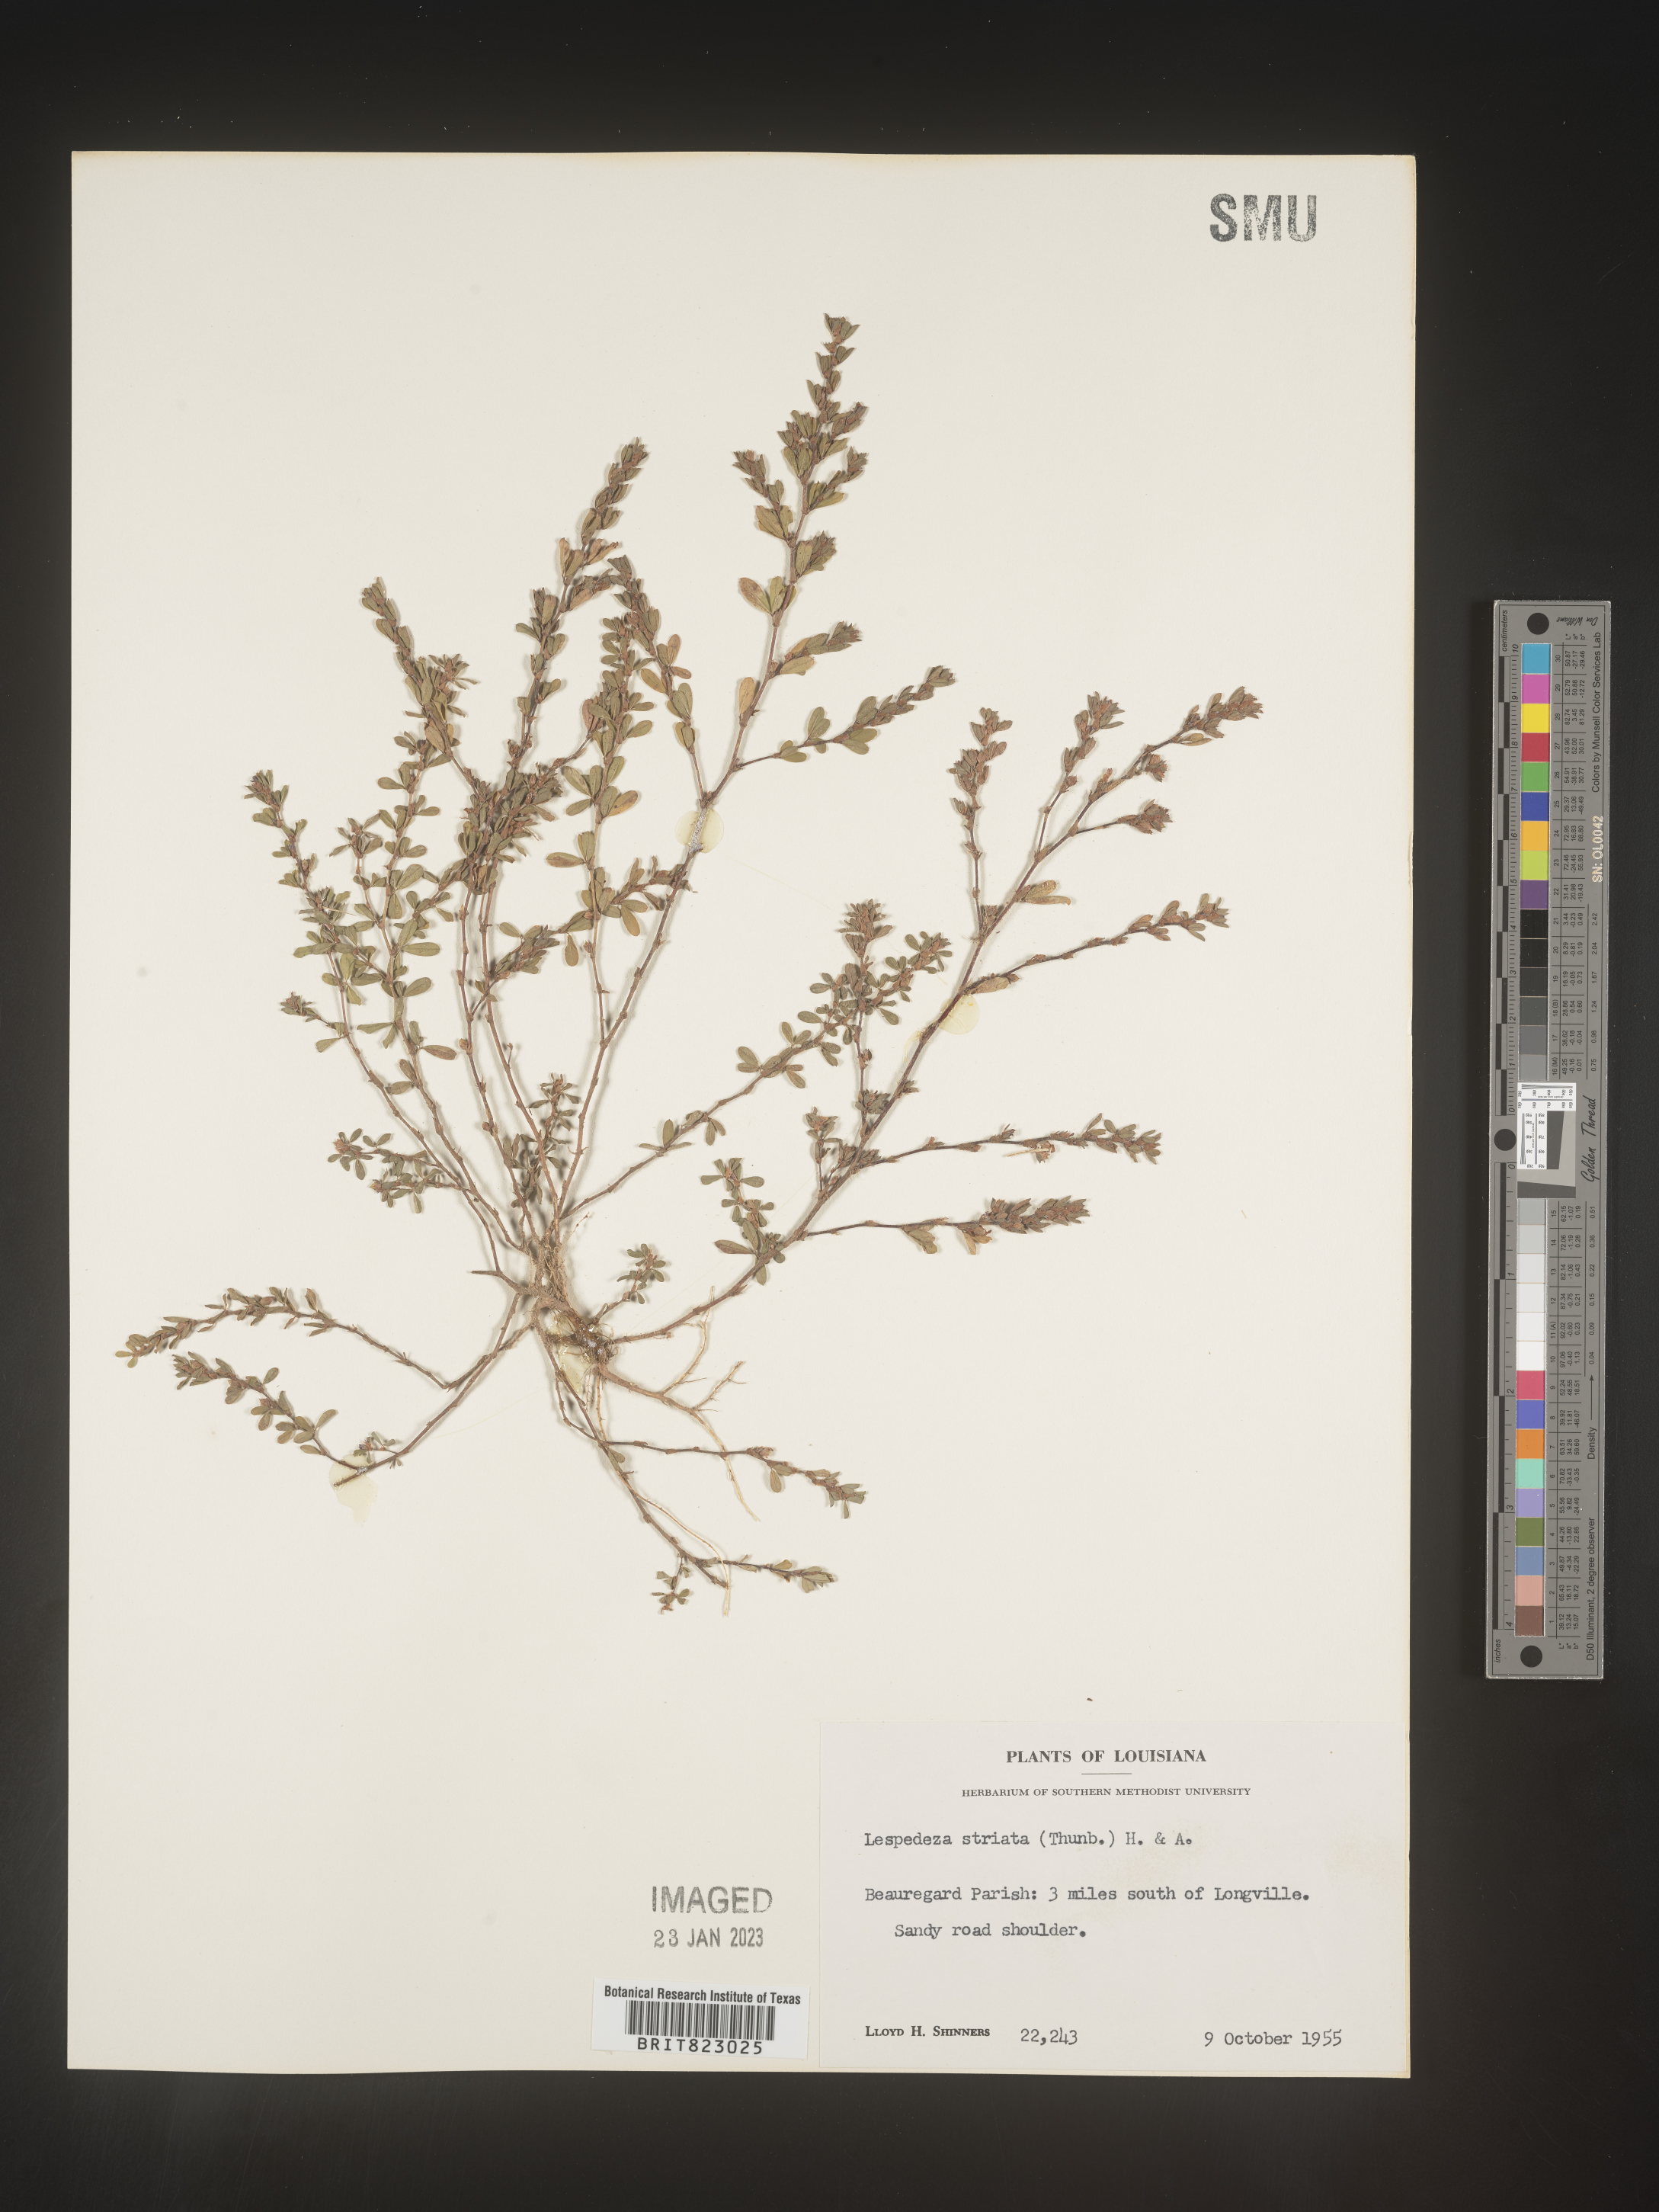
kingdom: Plantae
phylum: Tracheophyta
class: Magnoliopsida
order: Fabales
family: Fabaceae
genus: Kummerowia
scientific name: Kummerowia striata
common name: Japanese clover
